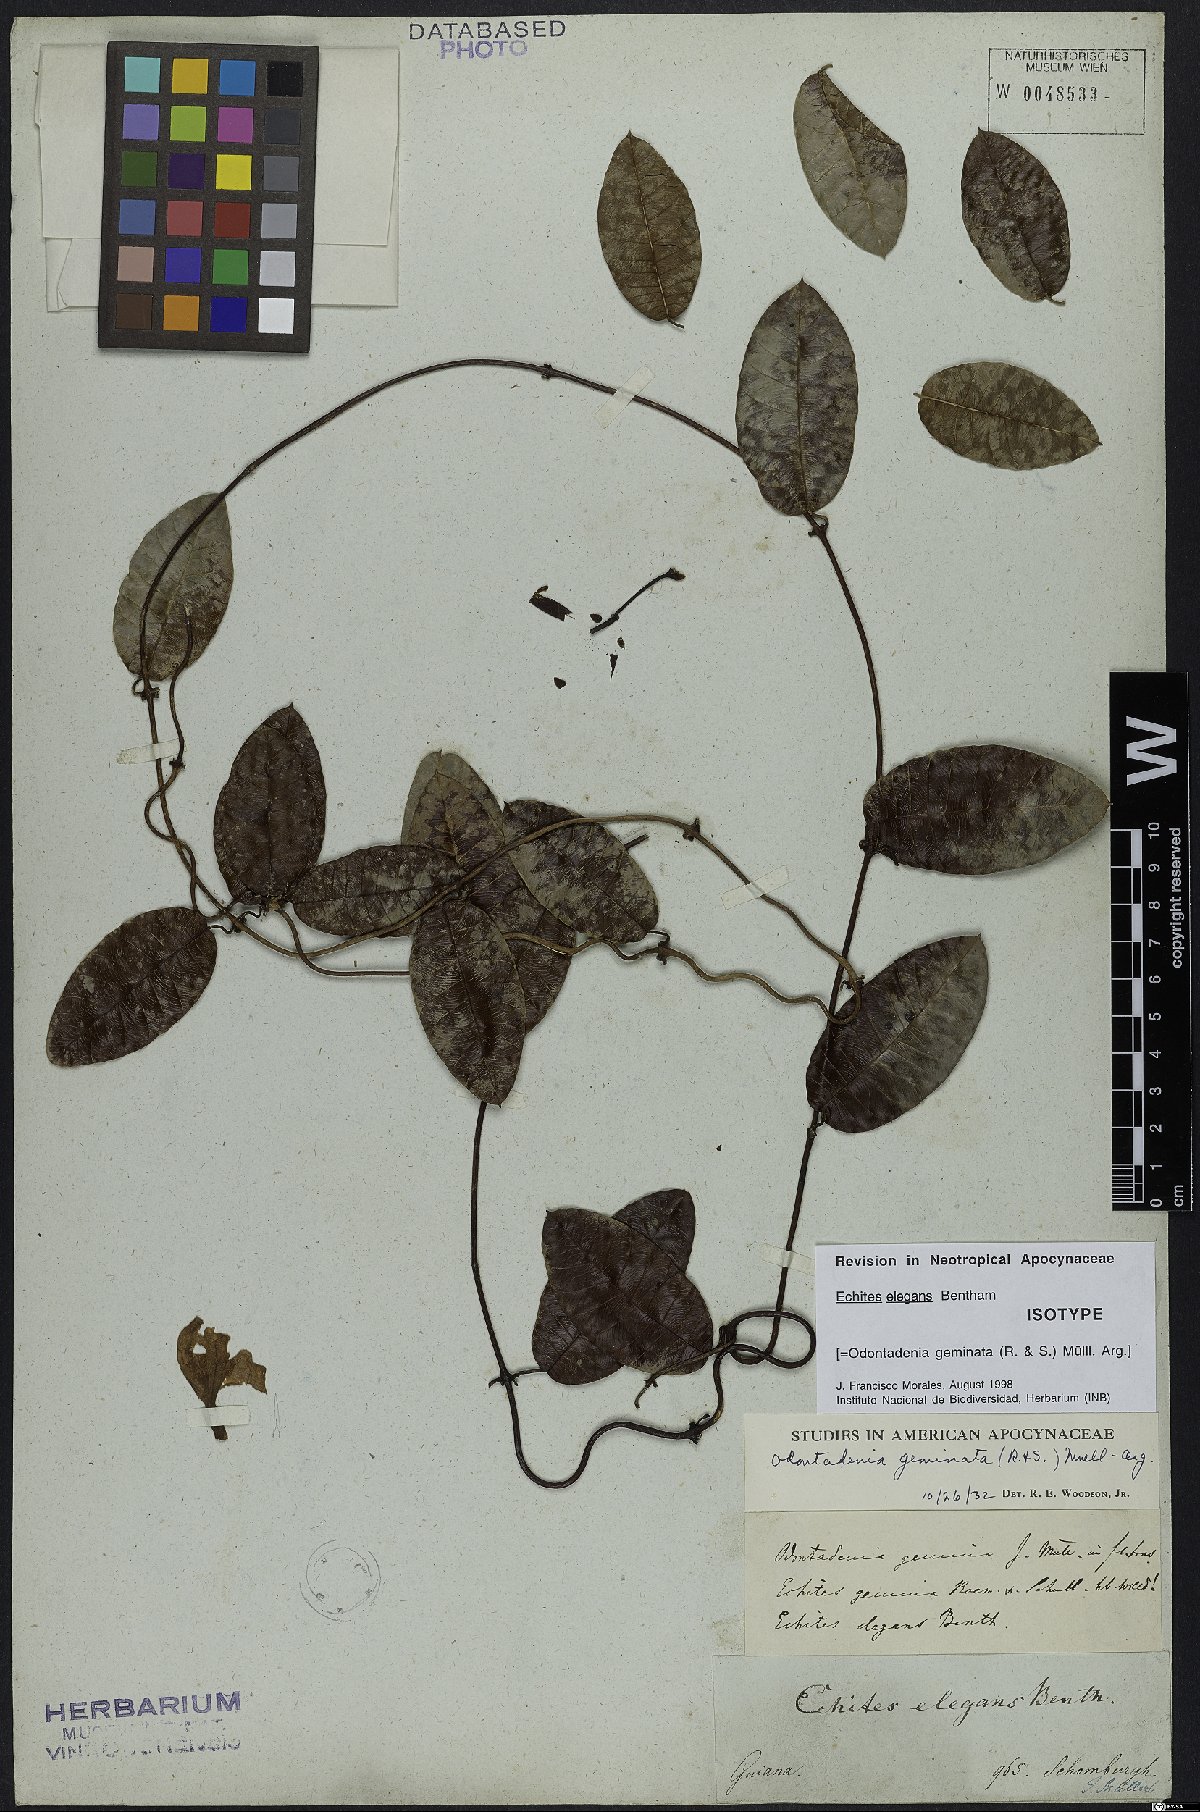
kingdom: Plantae
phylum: Tracheophyta
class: Magnoliopsida
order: Gentianales
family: Apocynaceae
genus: Odontadenia
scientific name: Odontadenia geminata
